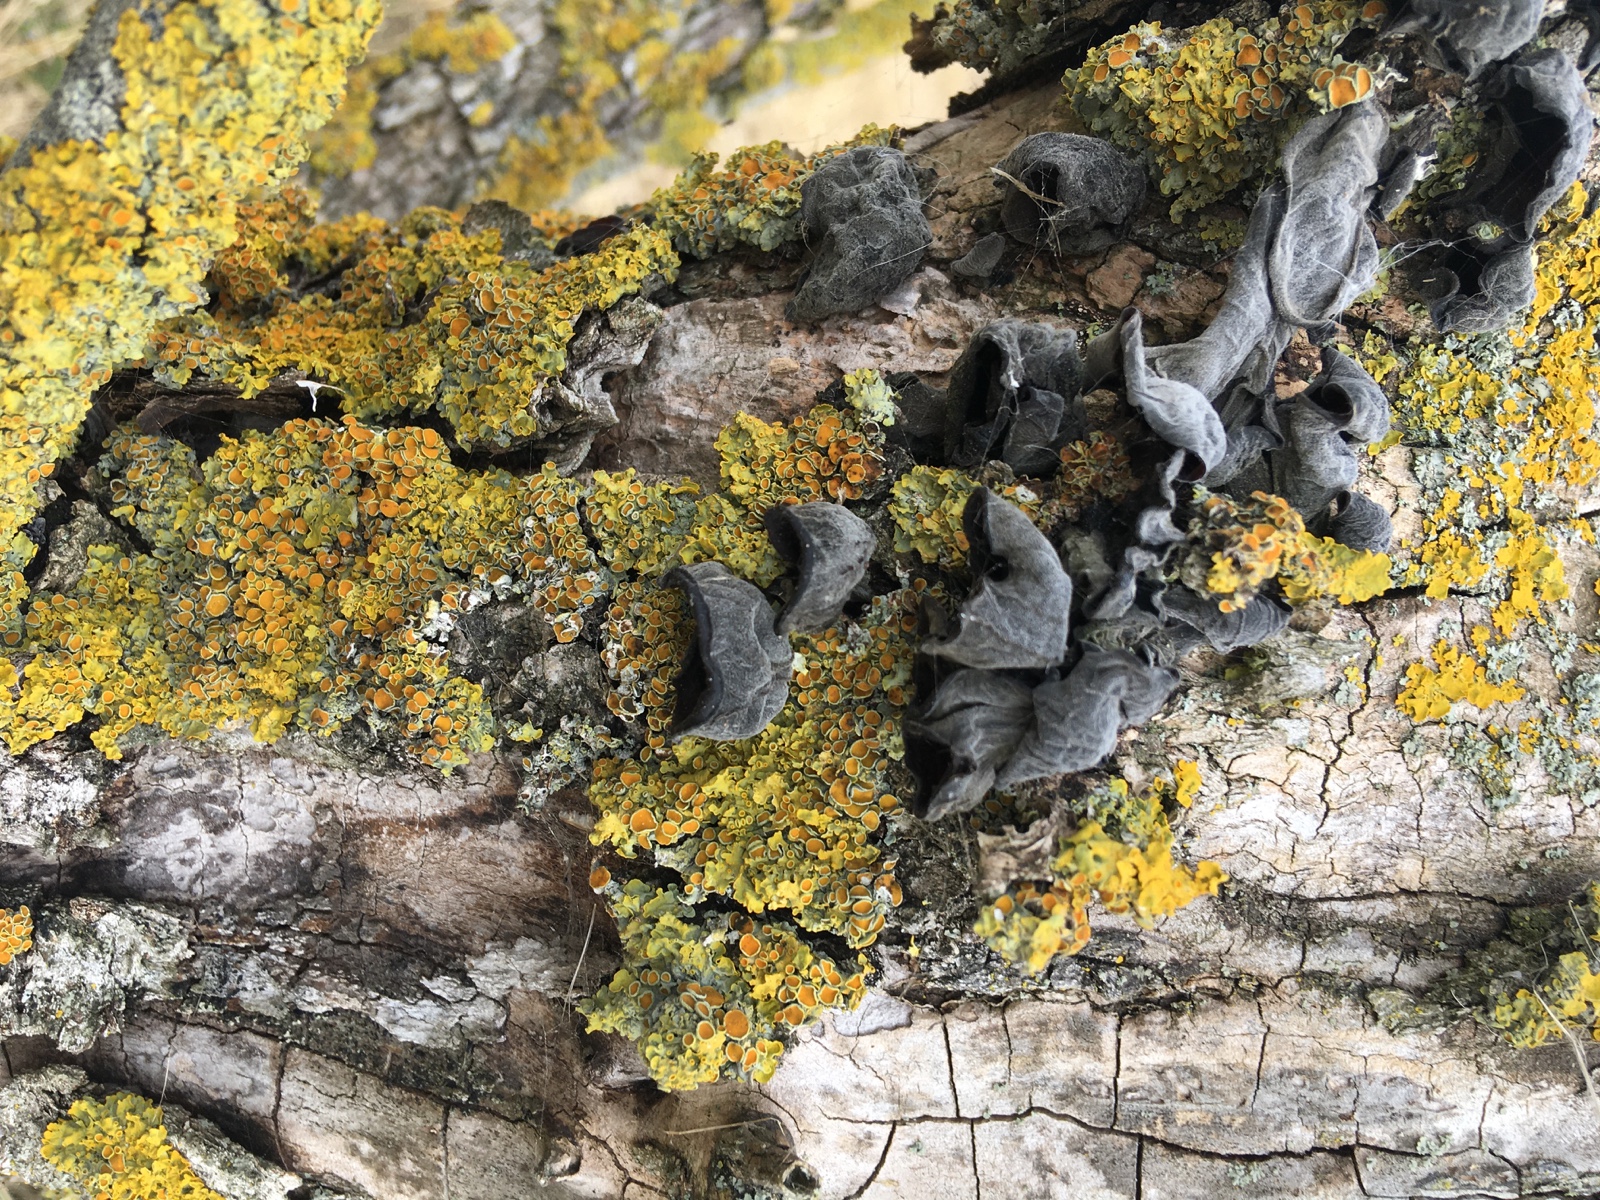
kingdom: Fungi
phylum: Basidiomycota
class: Agaricomycetes
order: Auriculariales
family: Auriculariaceae
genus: Auricularia
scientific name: Auricularia auricula-judae
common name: almindelig judasøre
